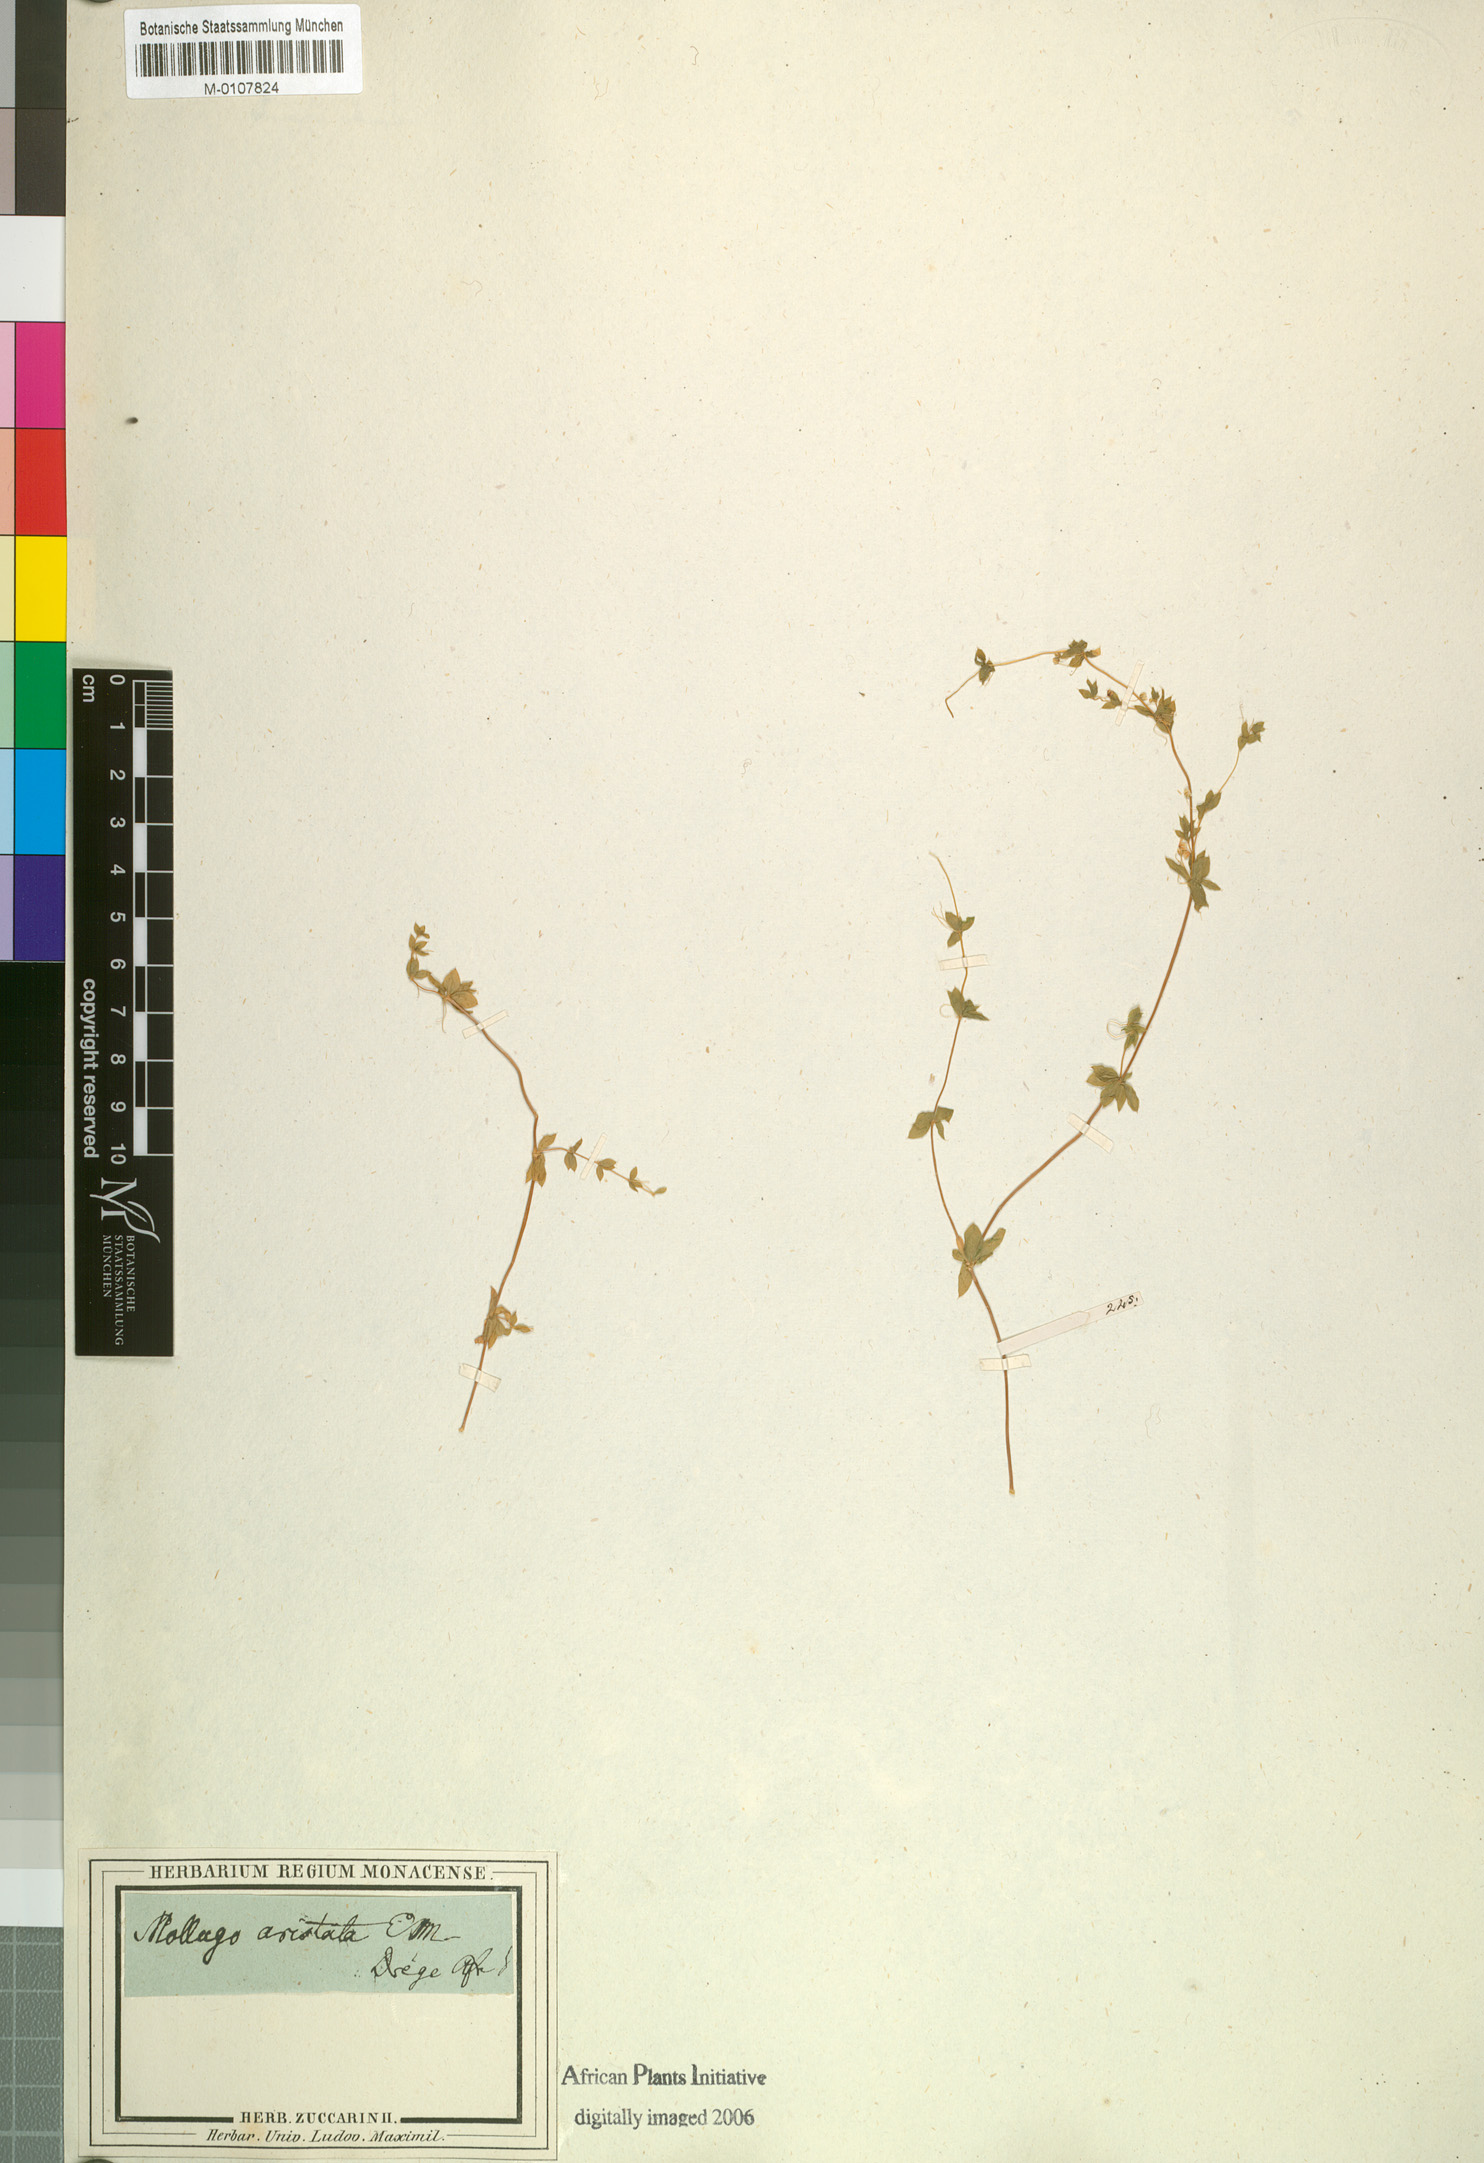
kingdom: Plantae
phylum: Tracheophyta
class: Magnoliopsida
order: Caryophyllales
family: Molluginaceae
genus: Mollugo
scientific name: Mollugo
